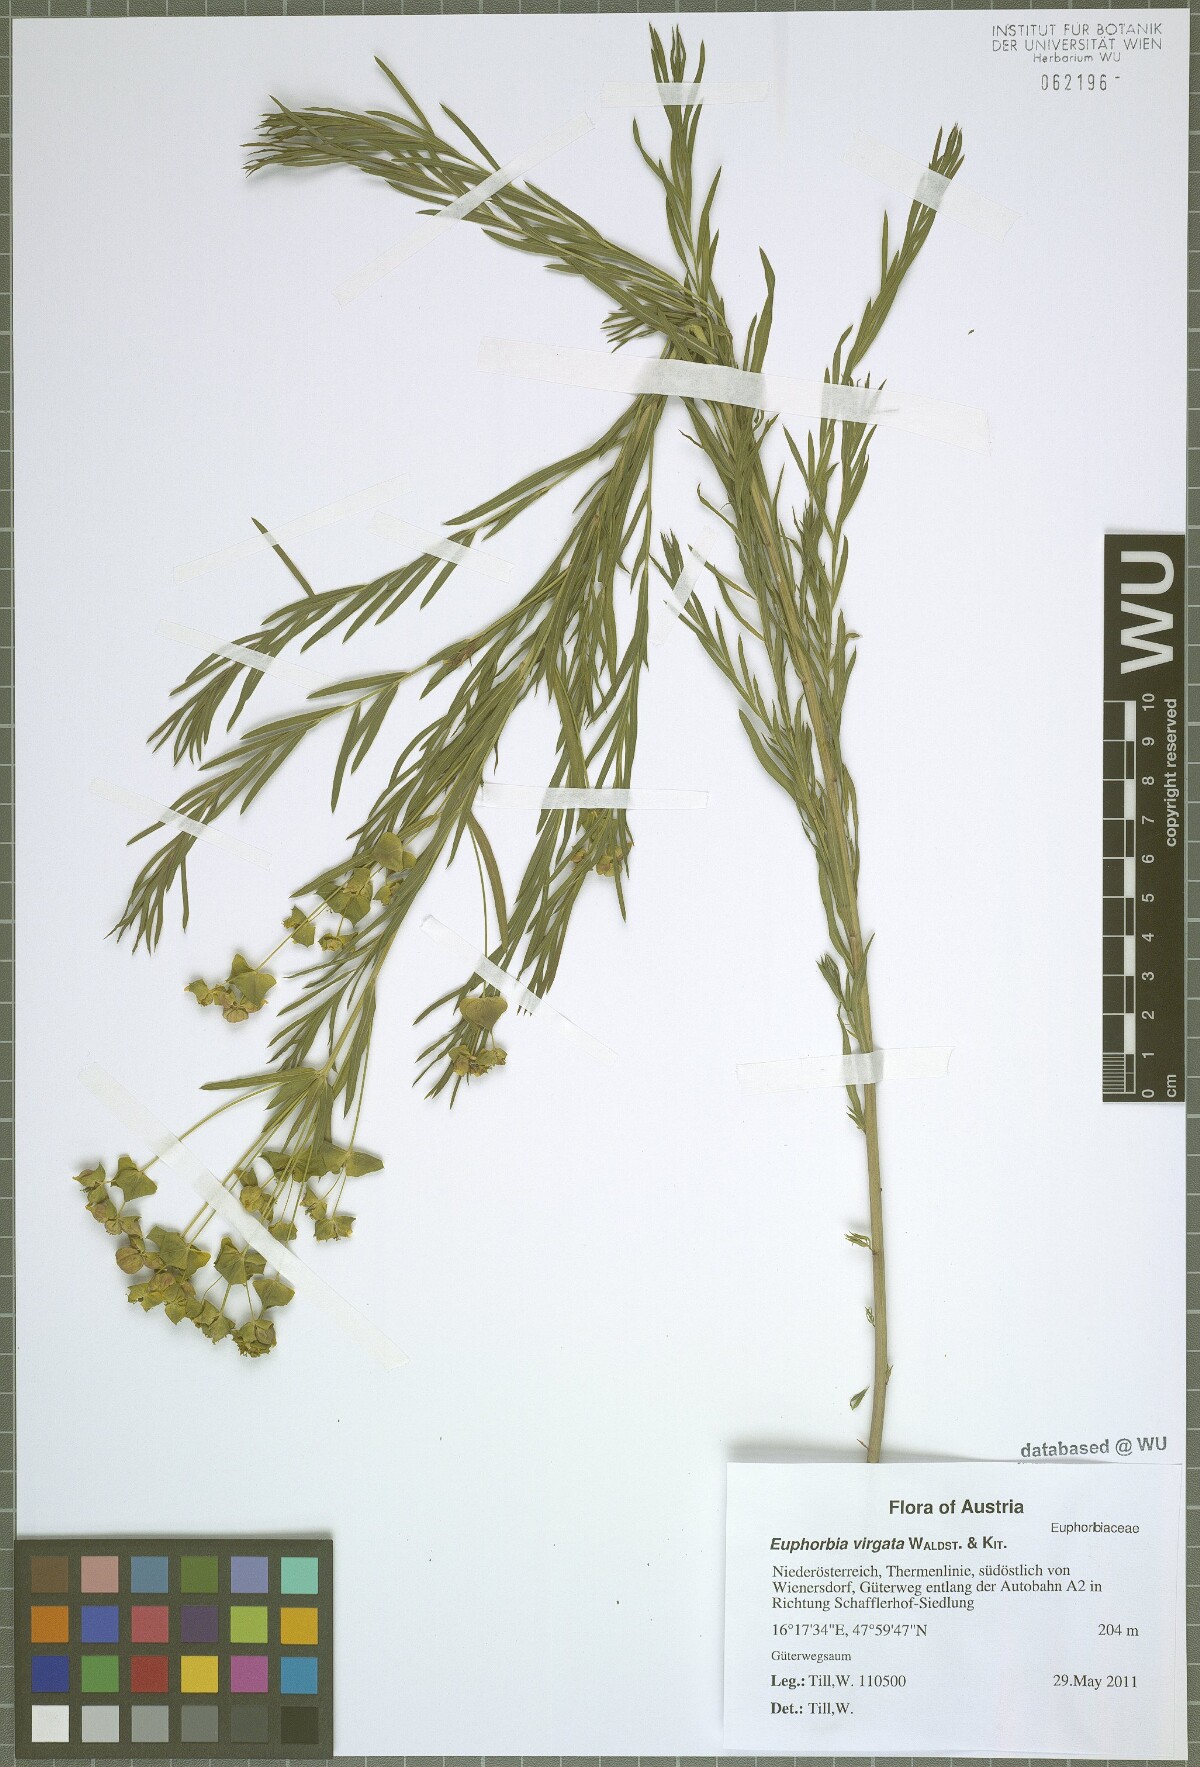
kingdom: Plantae
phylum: Tracheophyta
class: Magnoliopsida
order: Malpighiales
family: Euphorbiaceae
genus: Euphorbia
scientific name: Euphorbia virgata
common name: Leafy spurge
